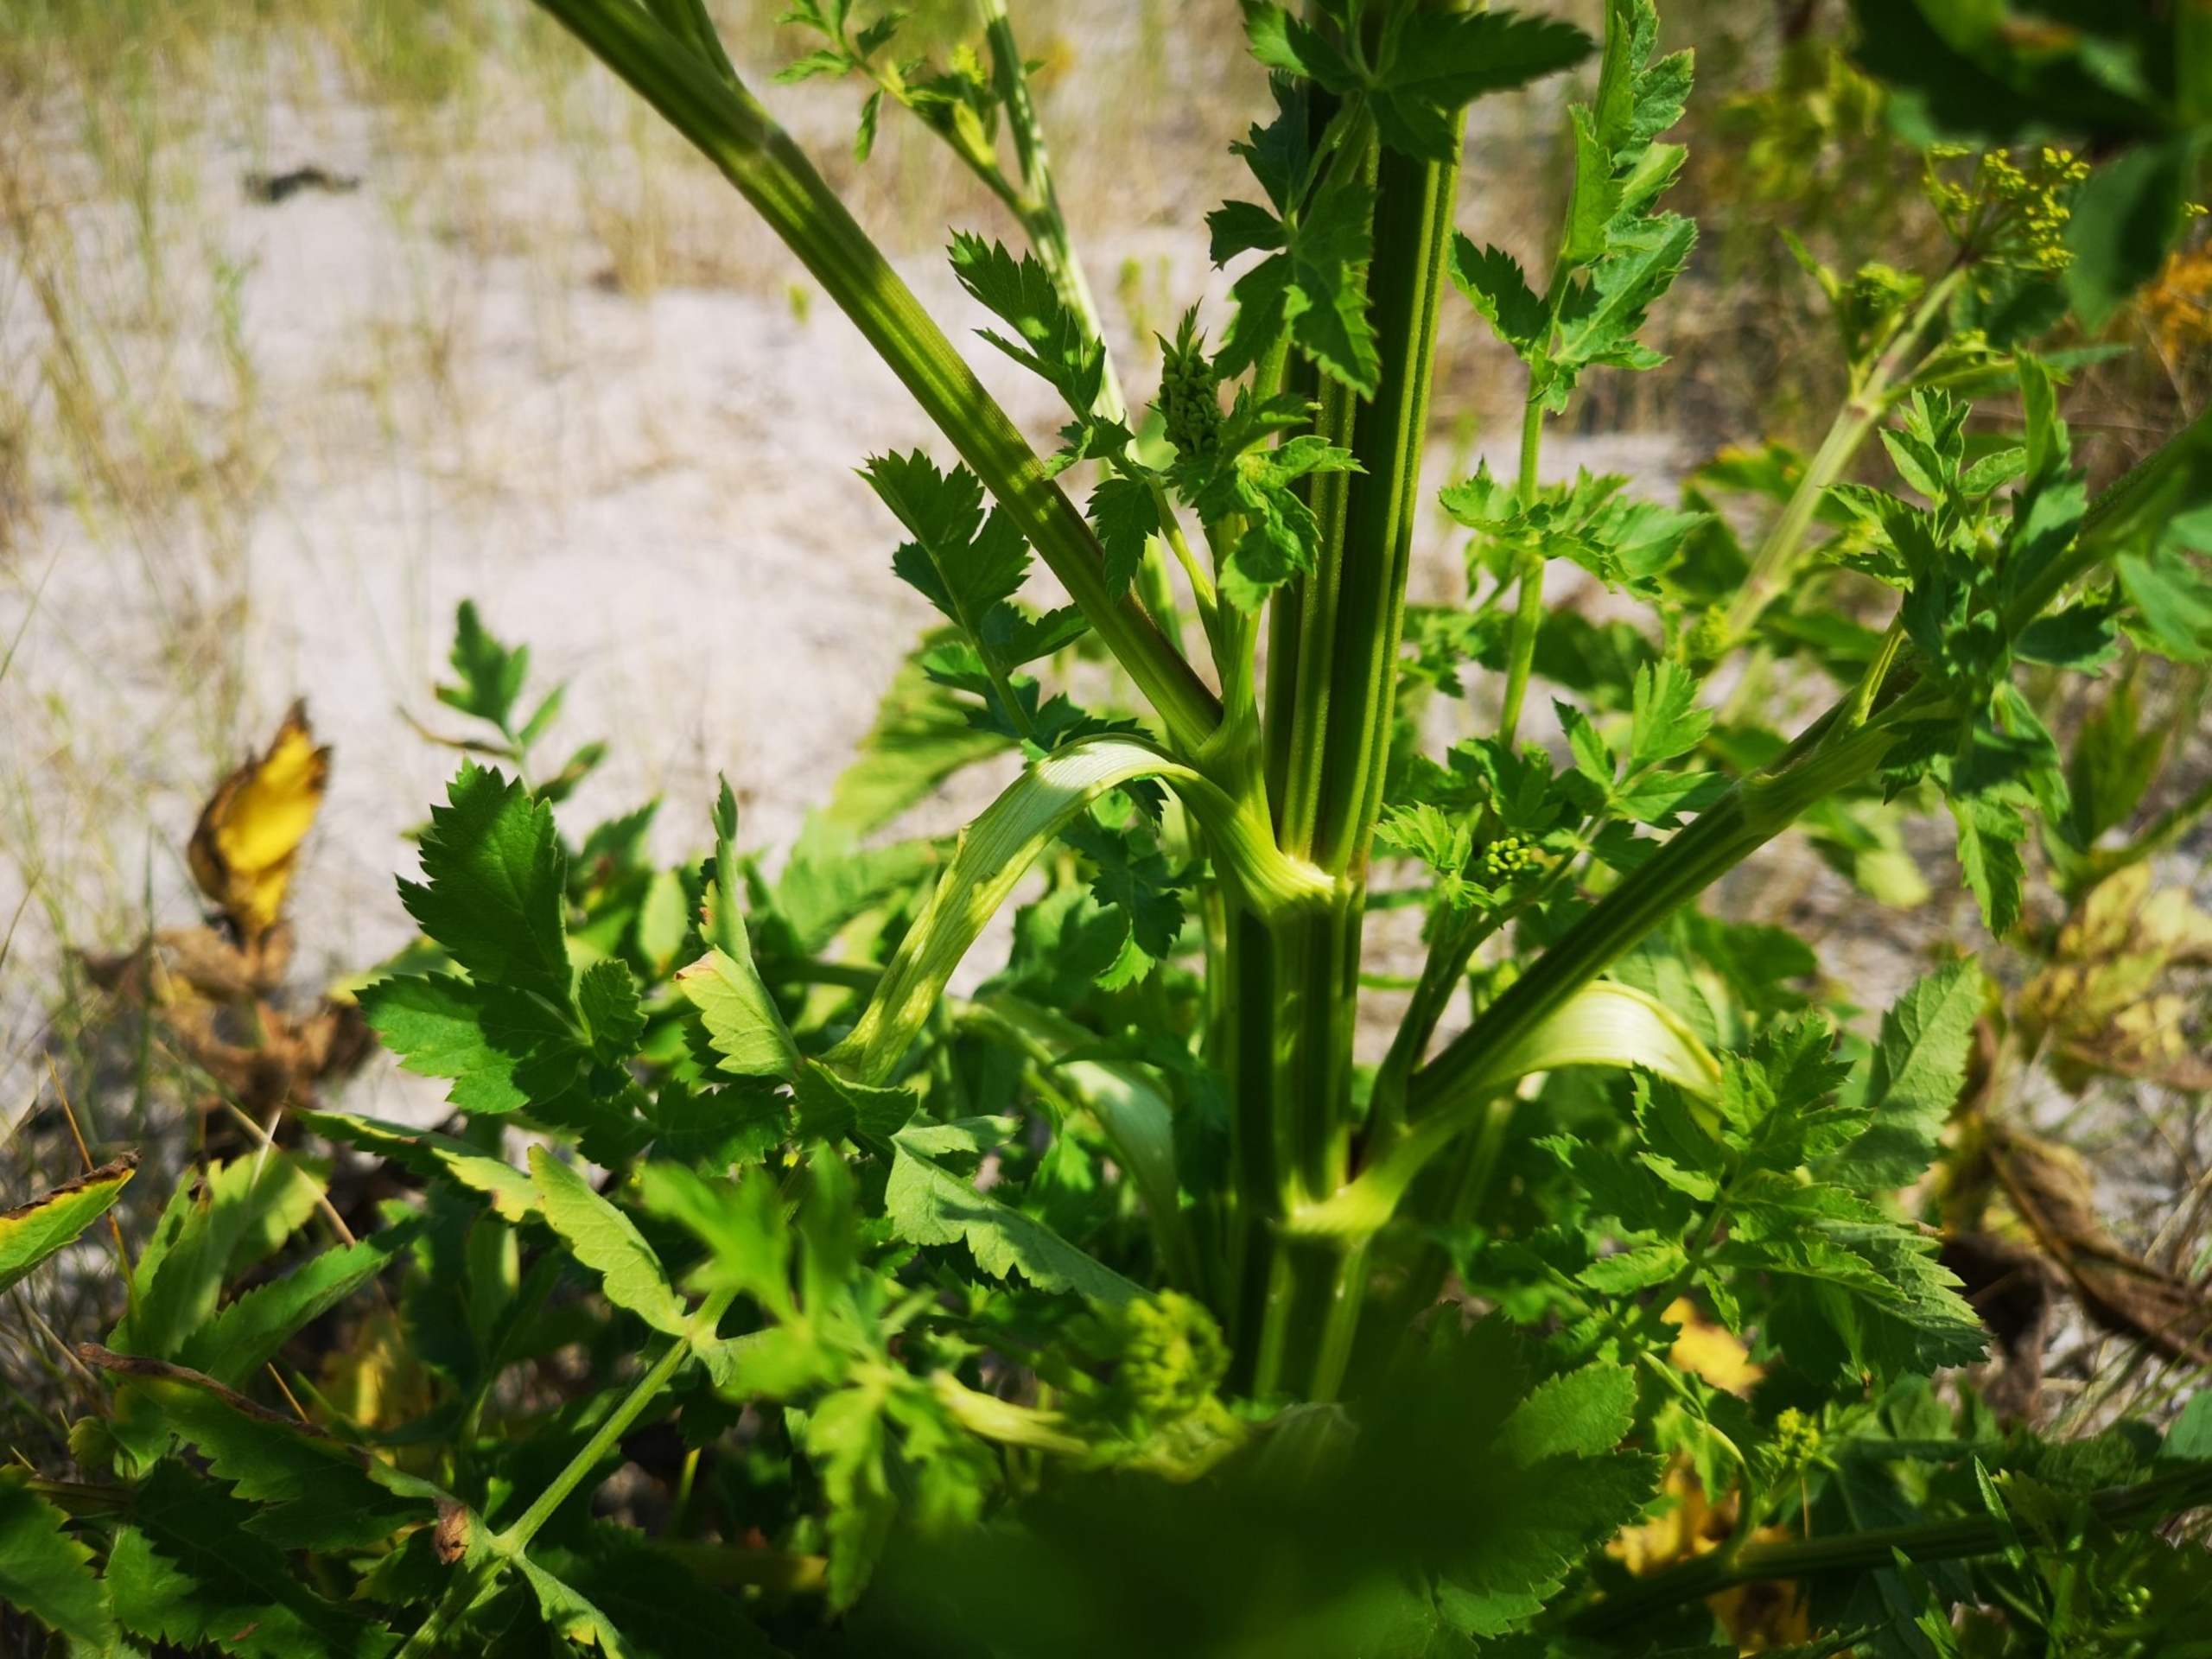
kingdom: Plantae
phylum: Tracheophyta
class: Magnoliopsida
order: Apiales
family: Apiaceae
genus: Pastinaca
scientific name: Pastinaca sativa
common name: Have-pastinak
